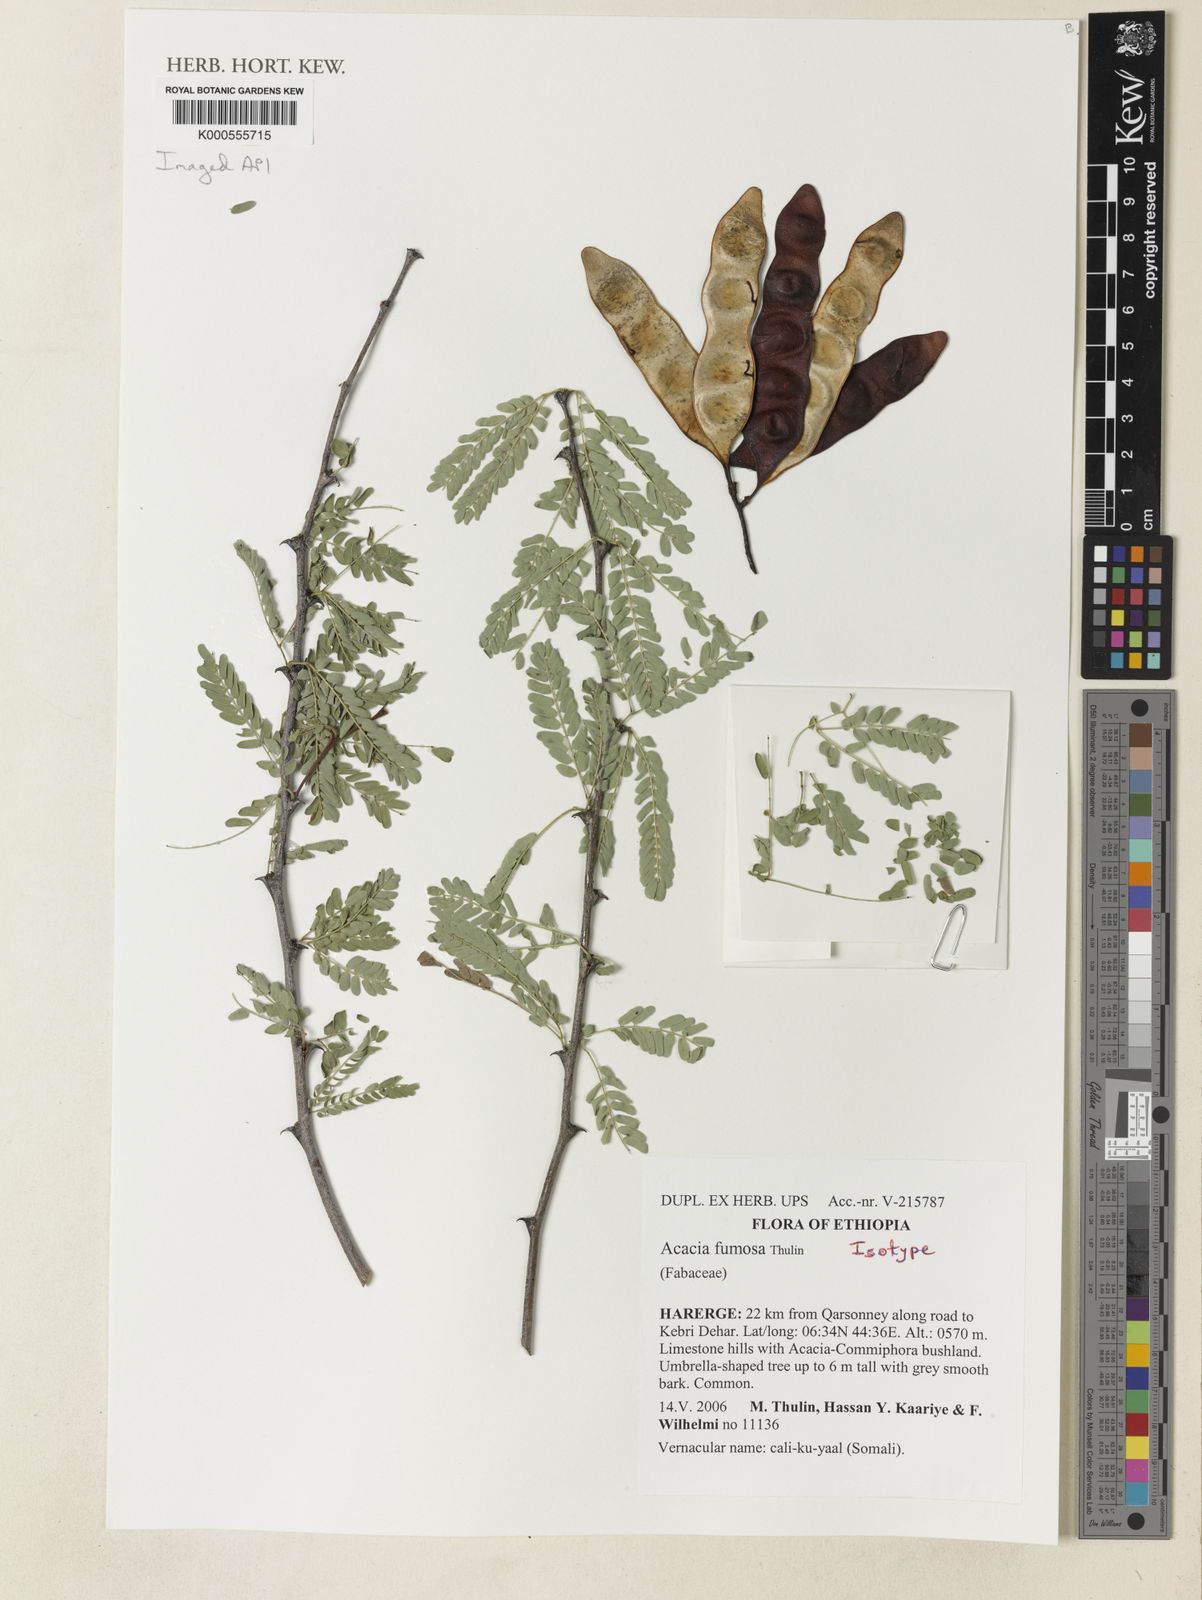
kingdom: Plantae
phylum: Tracheophyta
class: Magnoliopsida
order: Fabales
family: Fabaceae
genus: Senegalia
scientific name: Senegalia fumosa
